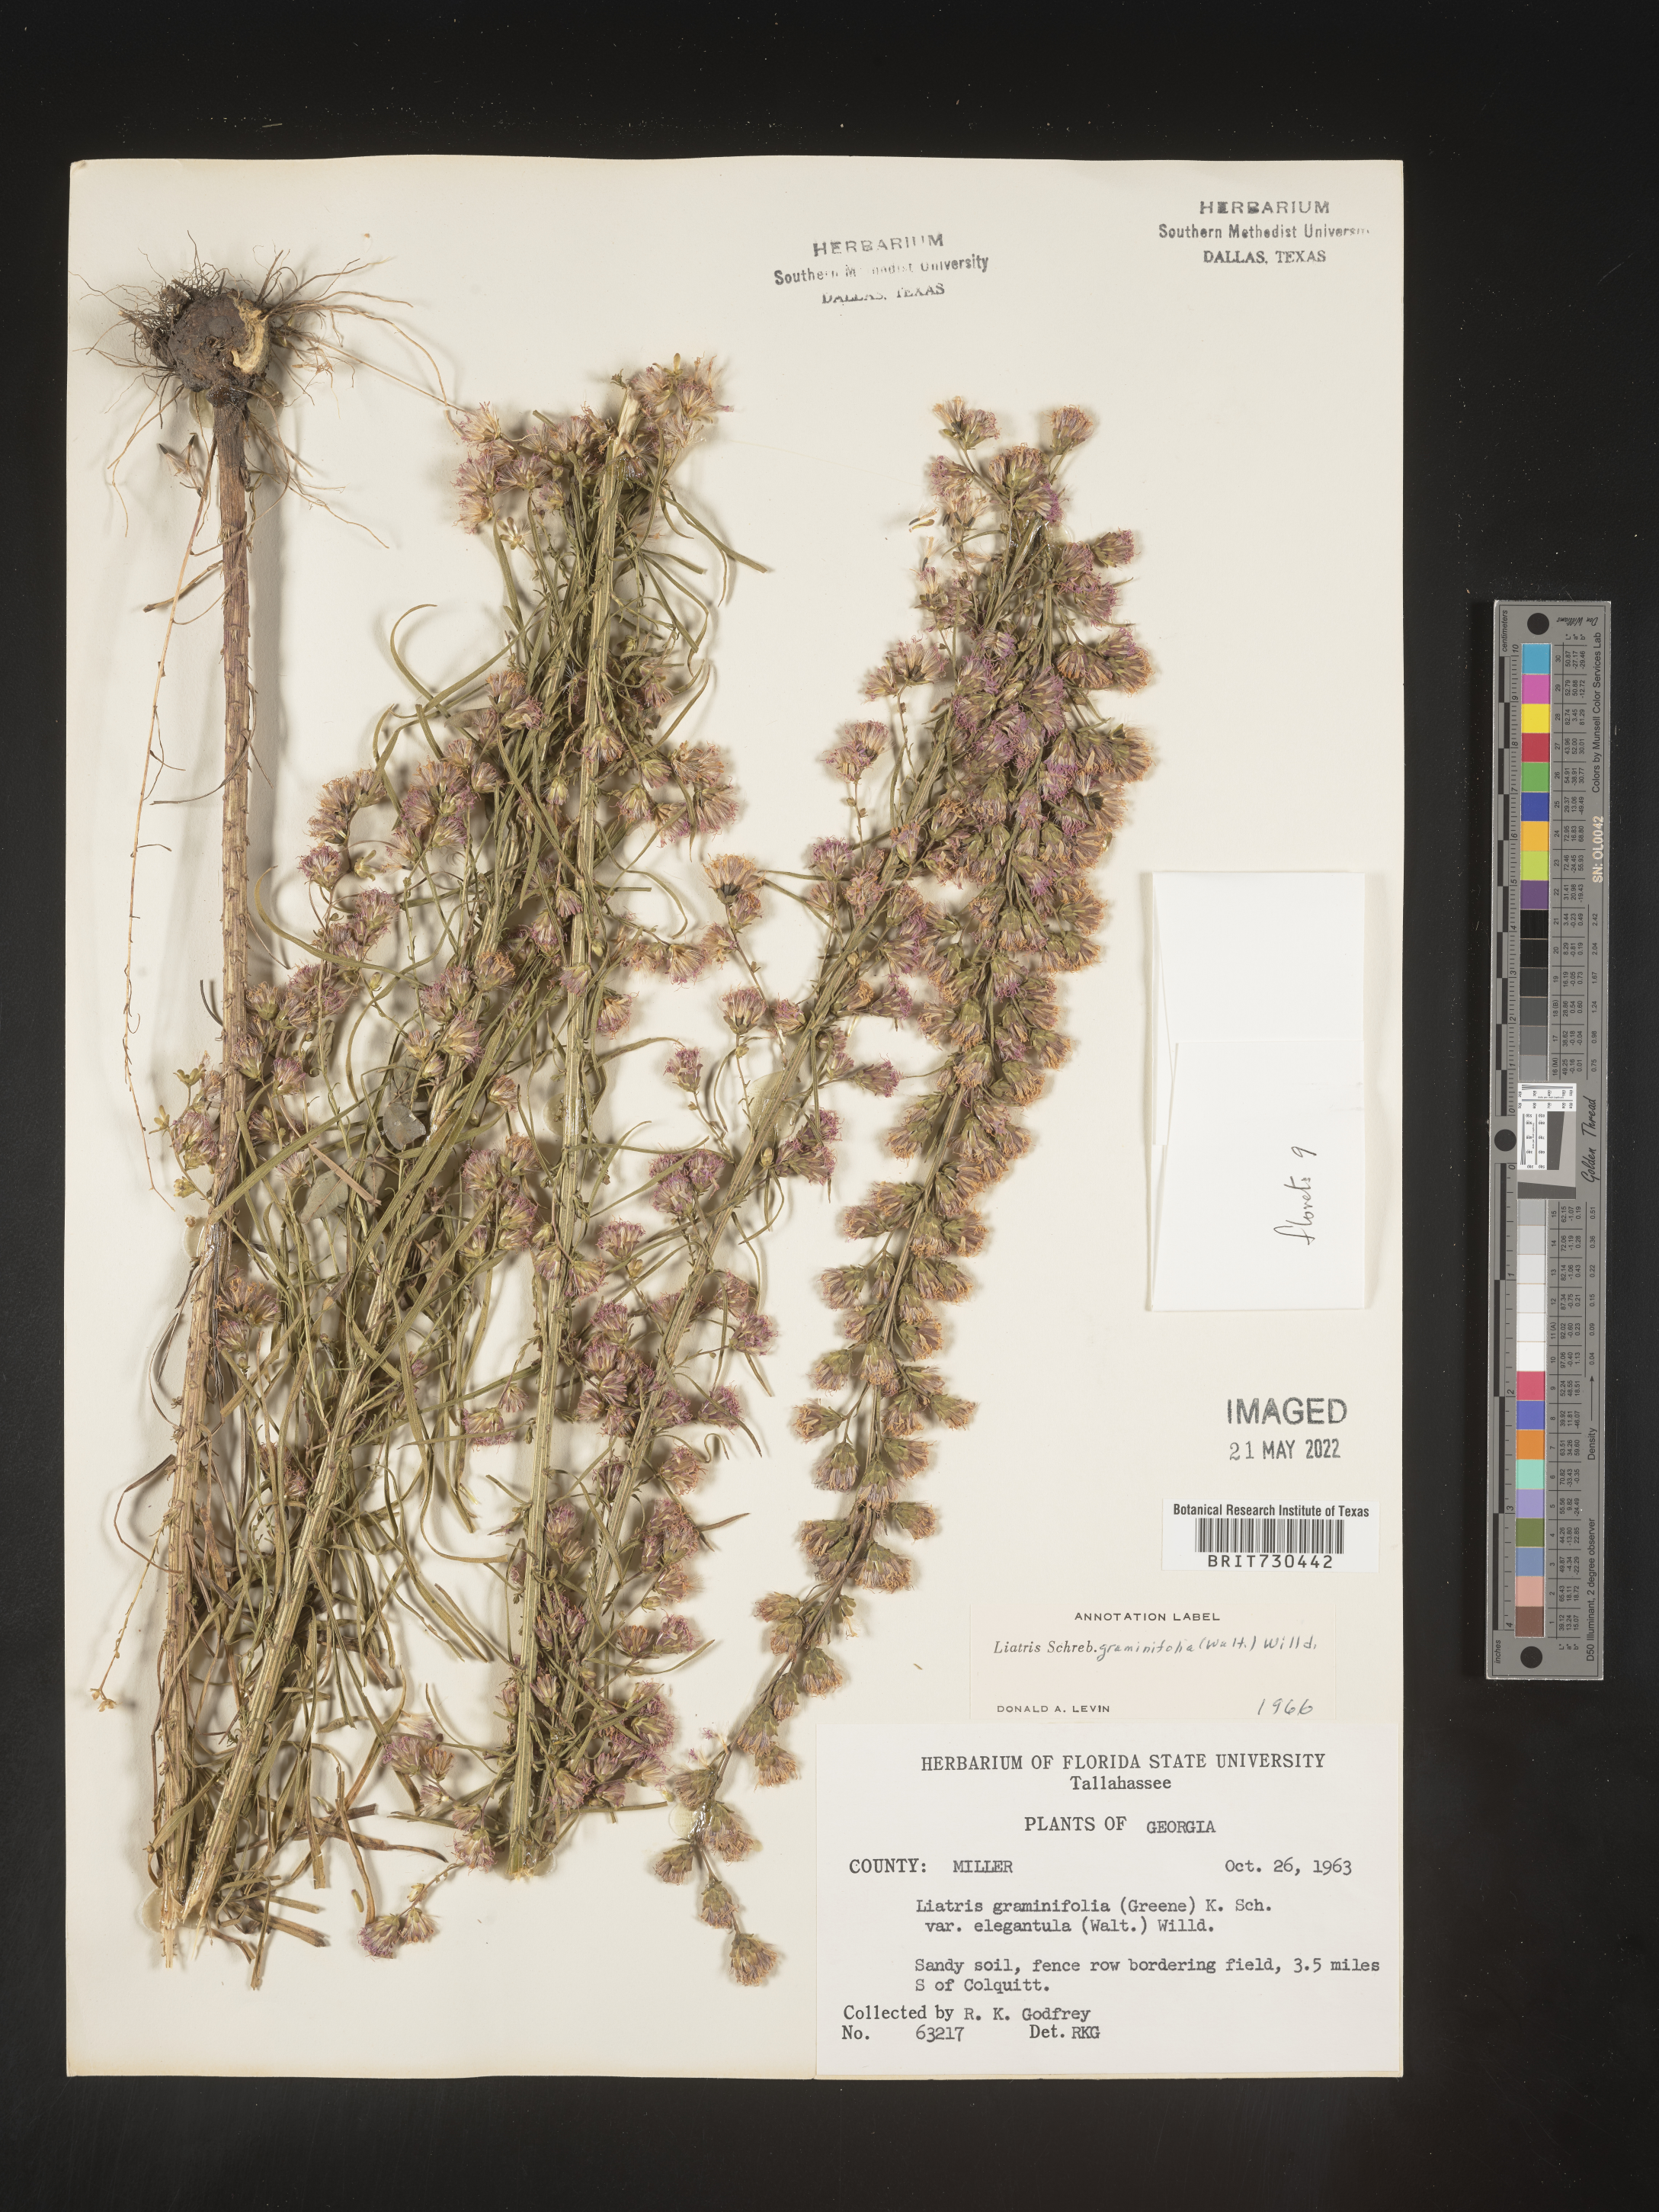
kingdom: Plantae
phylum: Tracheophyta
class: Magnoliopsida
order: Asterales
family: Asteraceae
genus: Liatris
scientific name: Liatris elegantula
